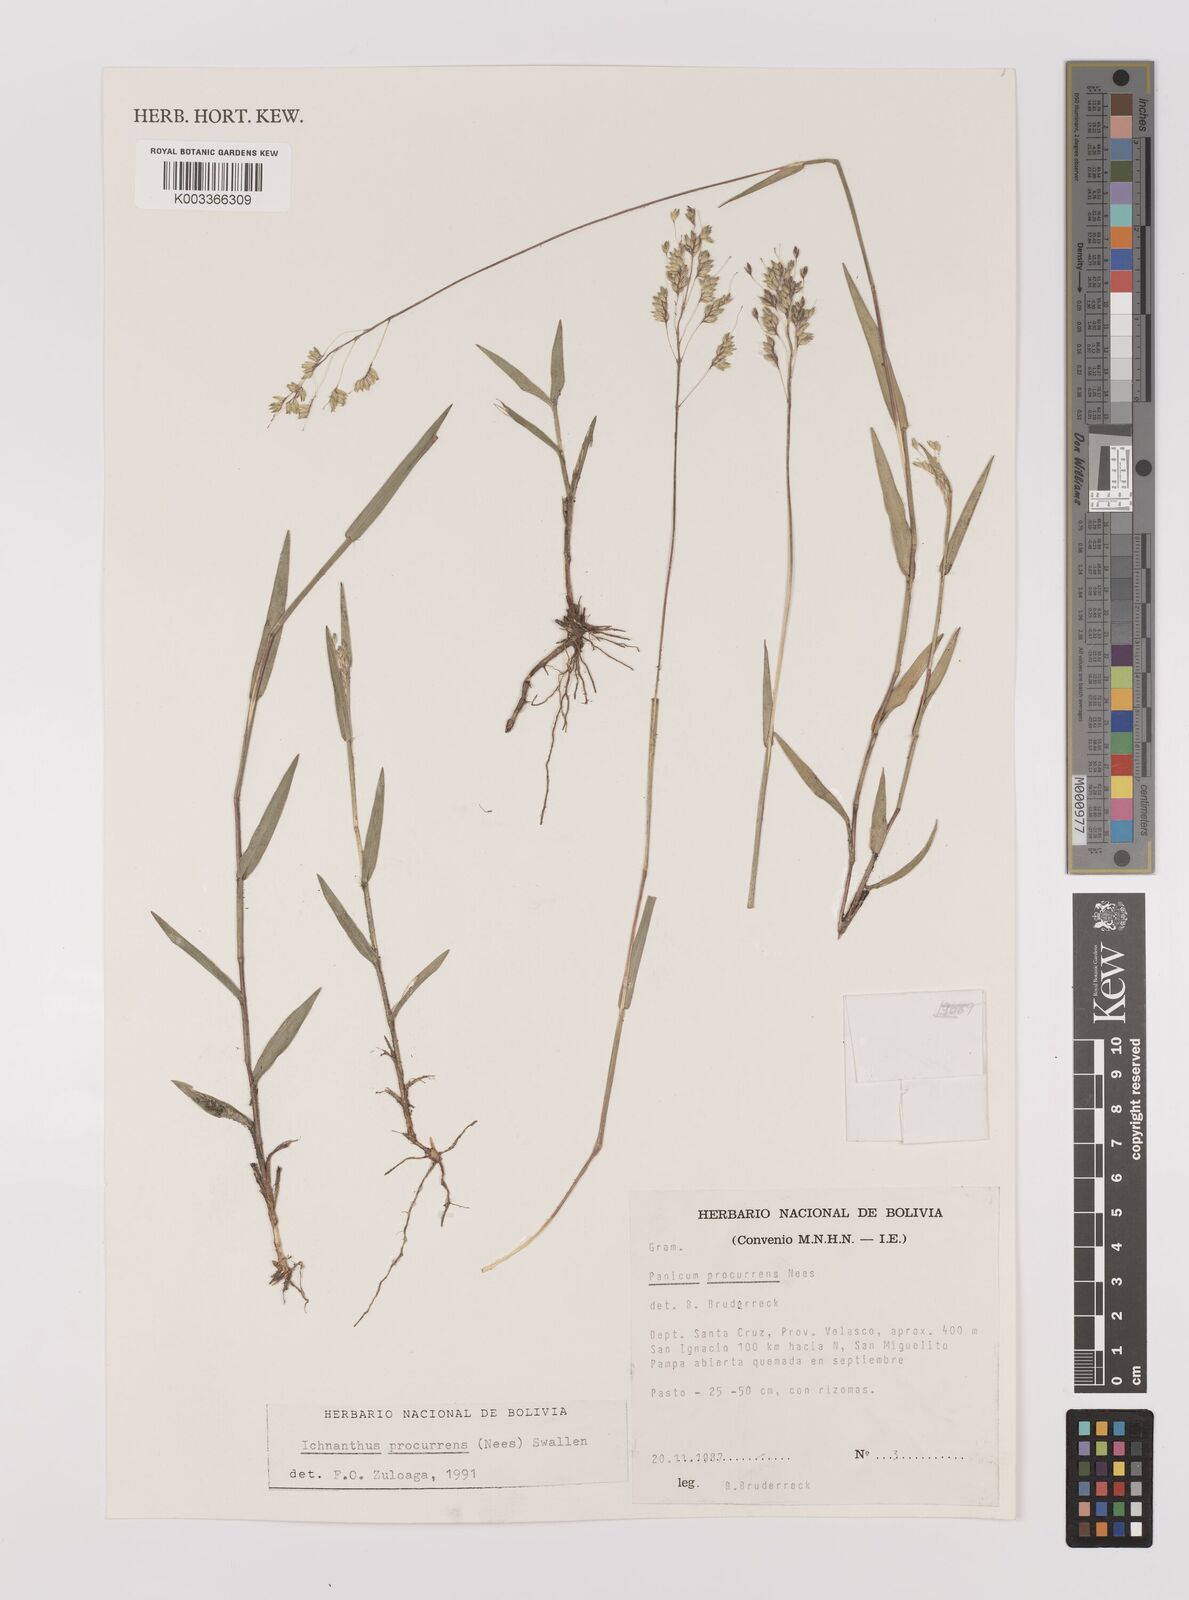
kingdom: Plantae
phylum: Tracheophyta
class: Liliopsida
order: Poales
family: Poaceae
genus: Oedochloa
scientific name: Oedochloa procurrens
